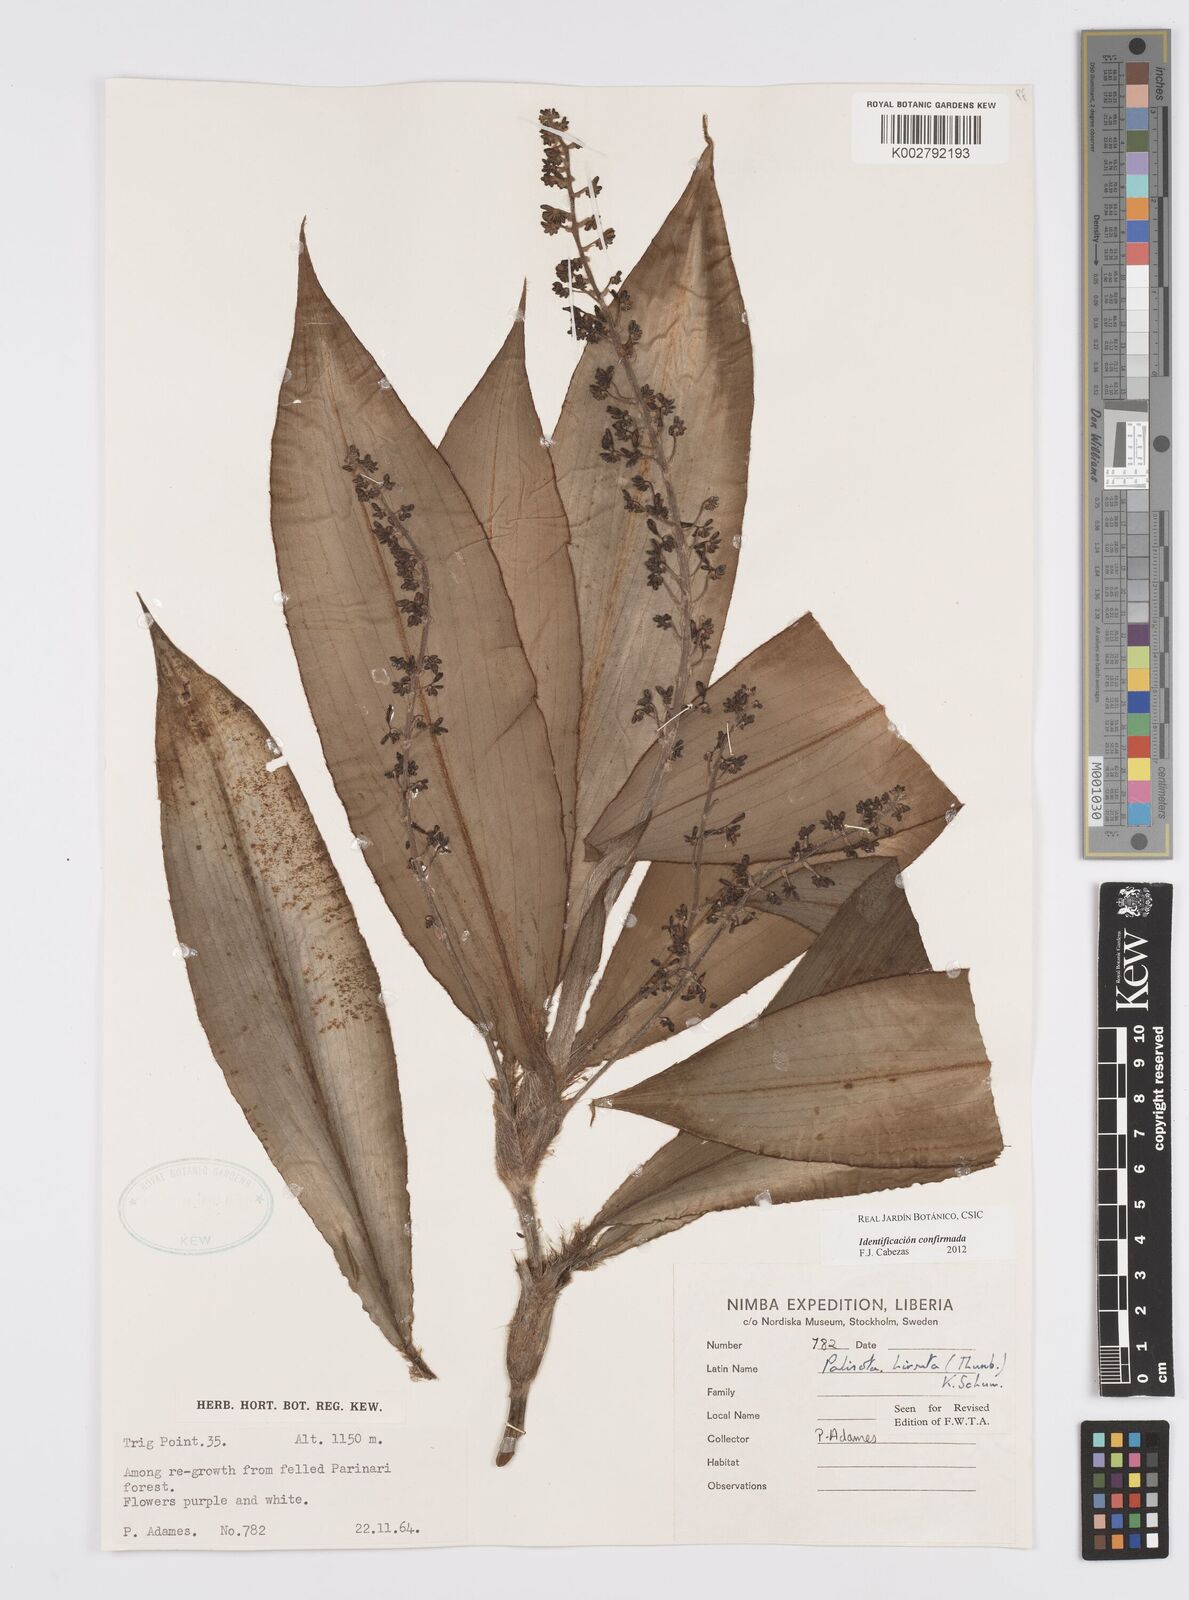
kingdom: Plantae
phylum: Tracheophyta
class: Liliopsida
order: Commelinales
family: Commelinaceae
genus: Palisota
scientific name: Palisota hirsuta
